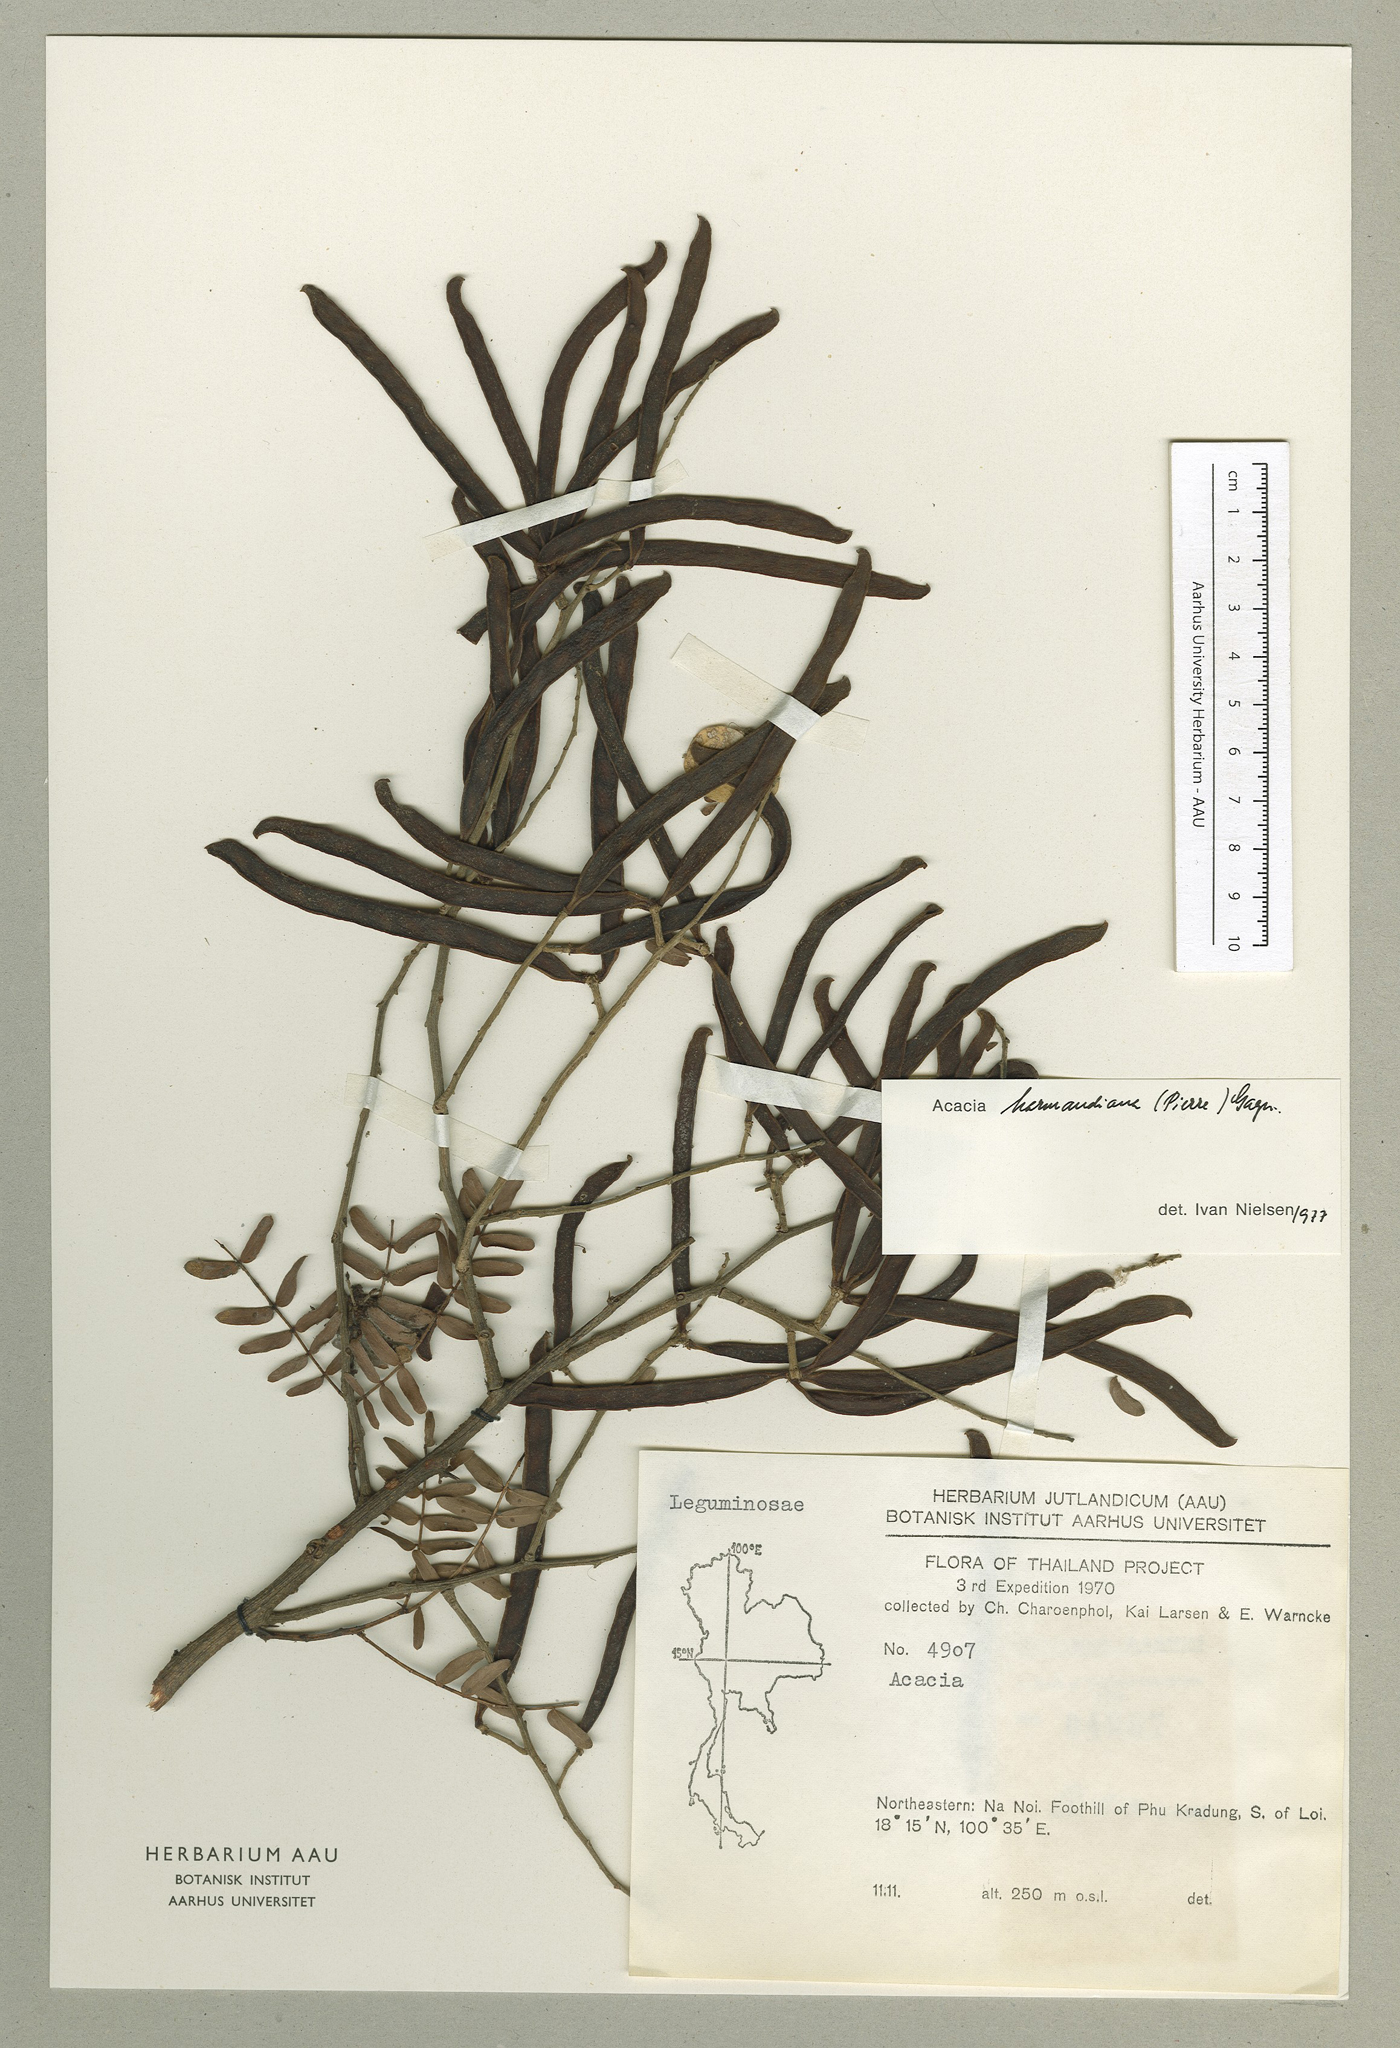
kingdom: Plantae
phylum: Tracheophyta
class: Magnoliopsida
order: Fabales
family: Fabaceae
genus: Vachellia
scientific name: Vachellia harmandiana
